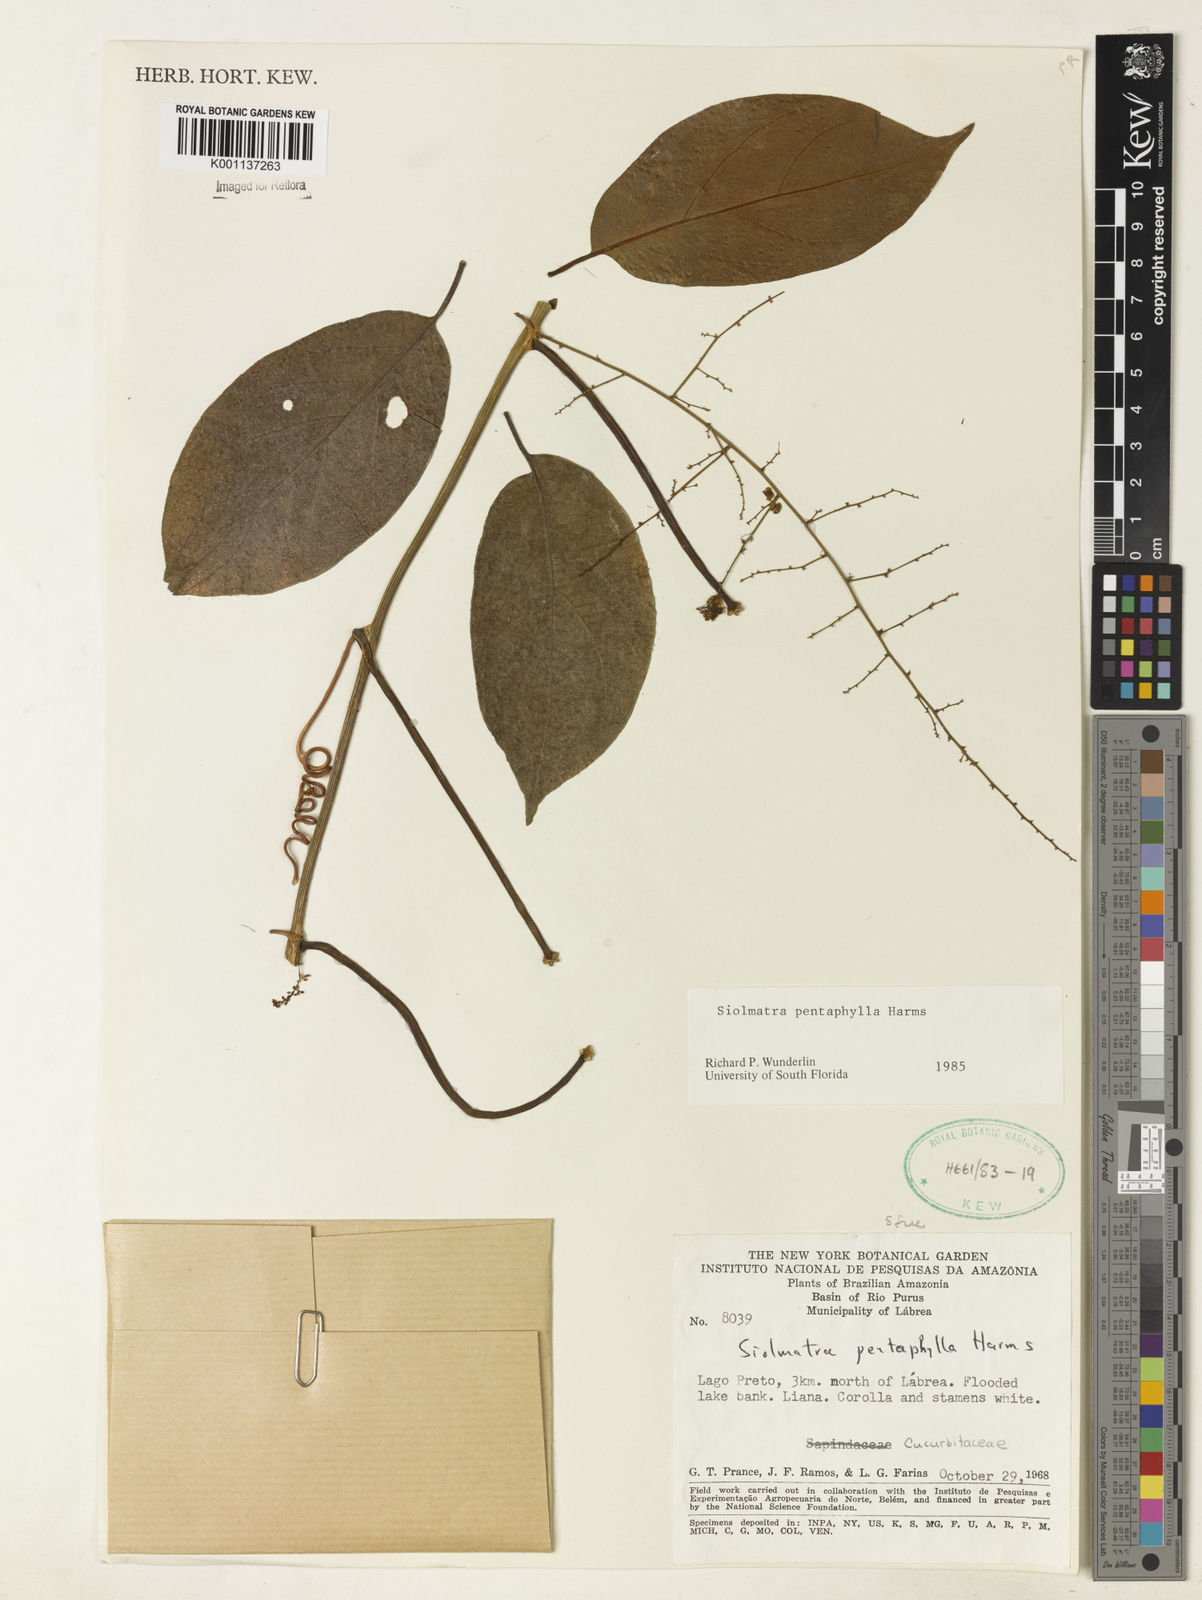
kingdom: Plantae
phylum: Tracheophyta
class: Magnoliopsida
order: Cucurbitales
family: Cucurbitaceae
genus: Siolmatra
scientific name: Siolmatra pentaphylla
